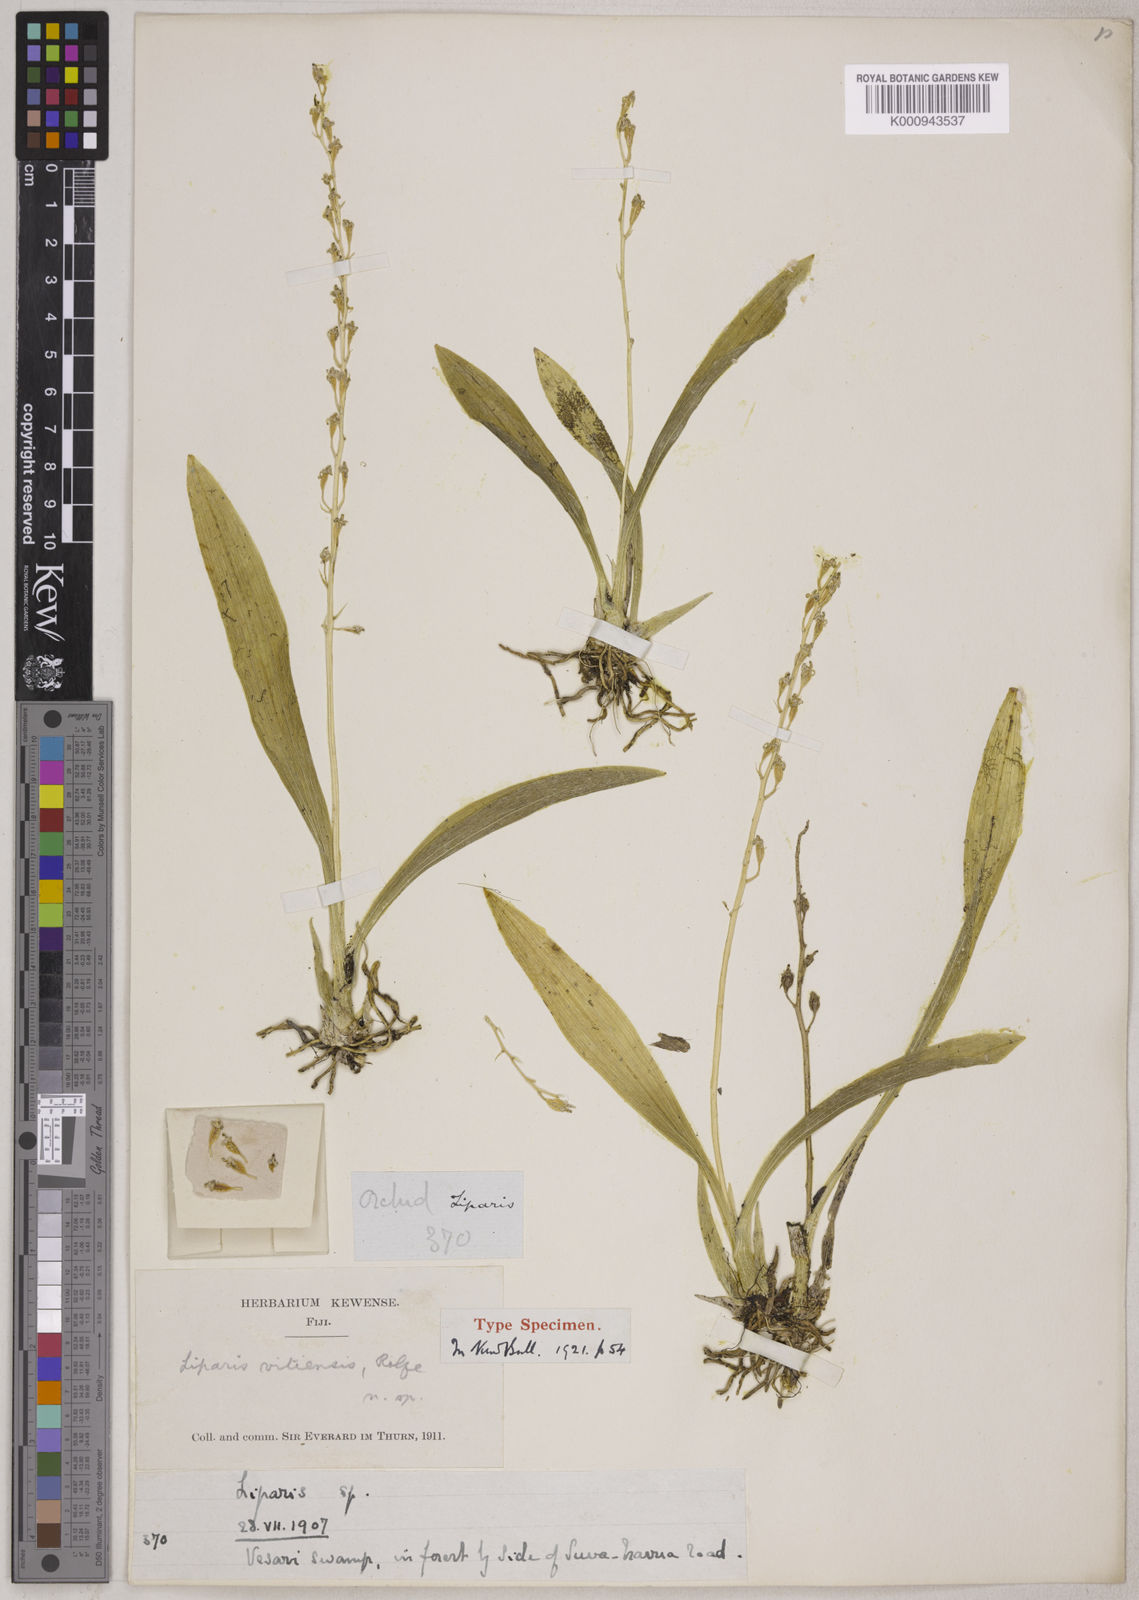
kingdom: Plantae
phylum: Tracheophyta
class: Liliopsida
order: Asparagales
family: Orchidaceae
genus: Liparis
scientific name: Liparis elegans
